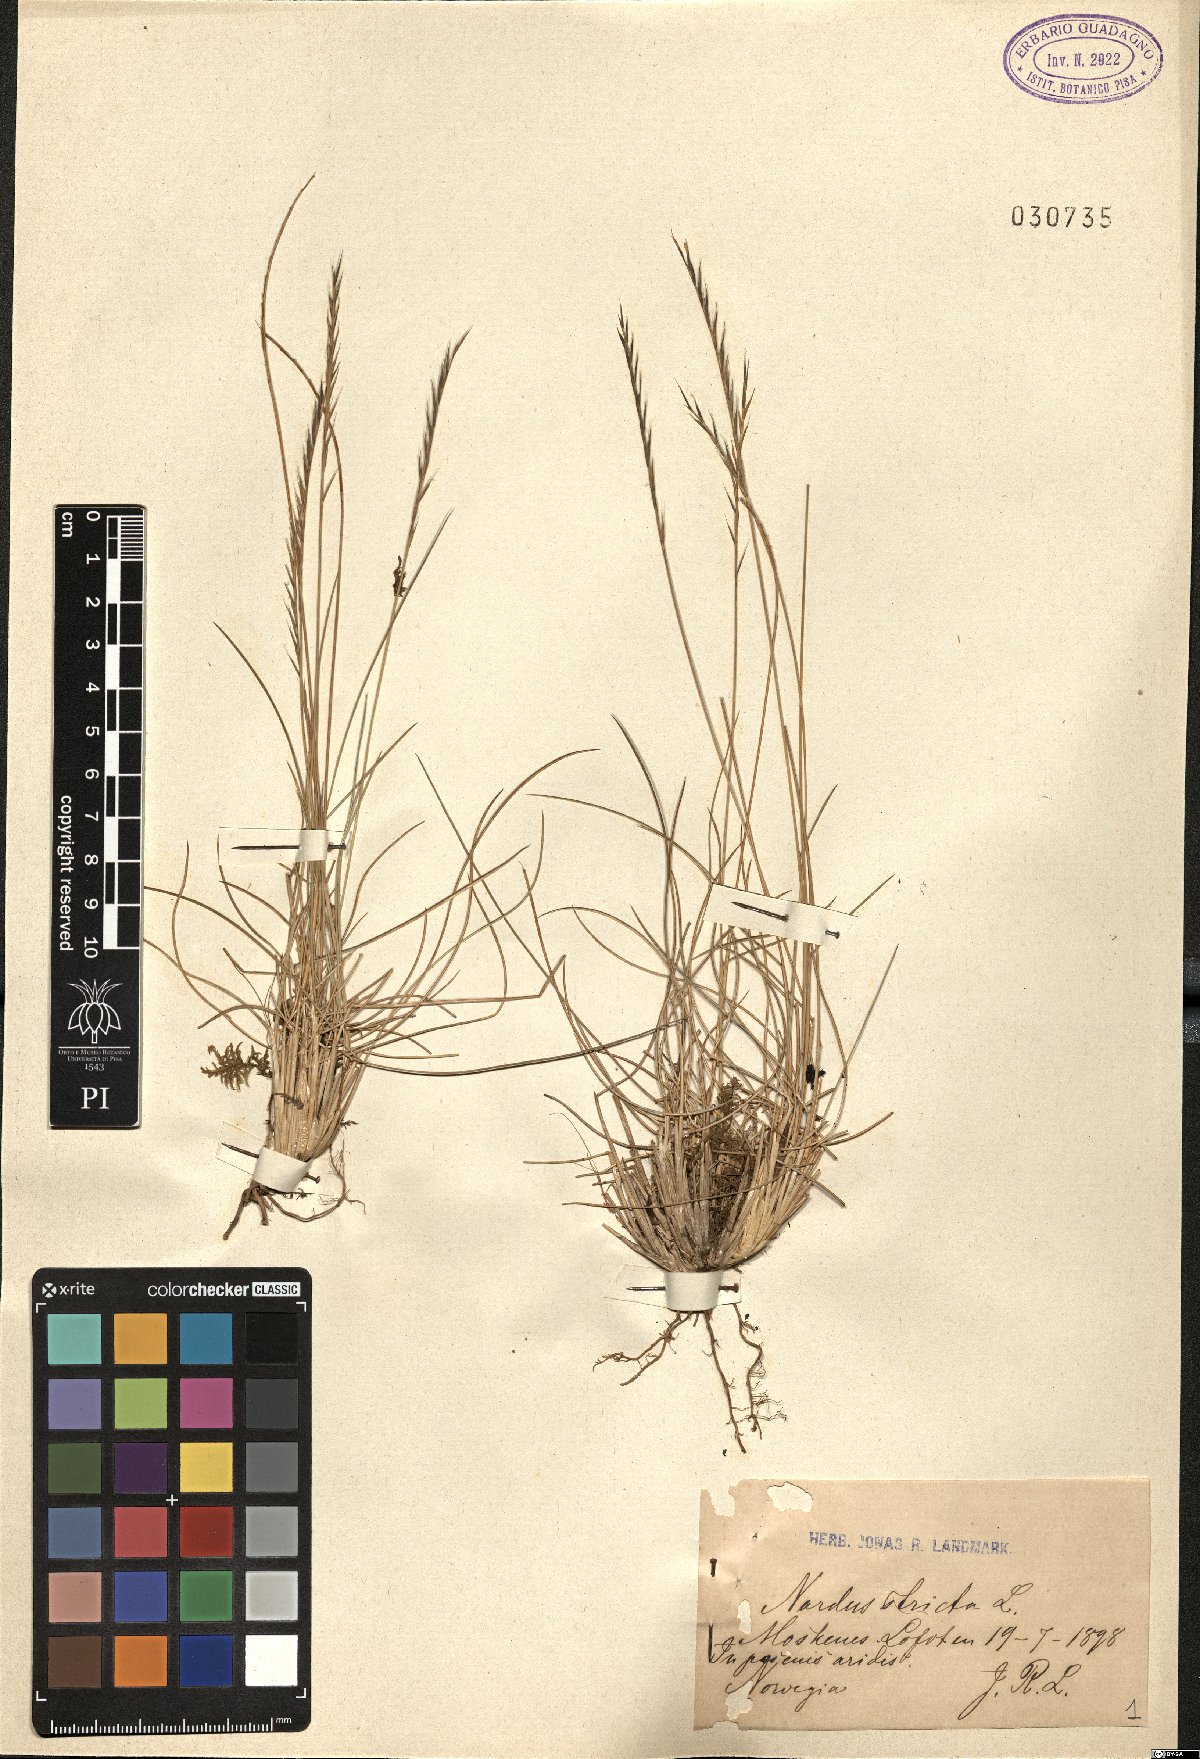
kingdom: Plantae
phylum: Tracheophyta
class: Liliopsida
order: Poales
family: Poaceae
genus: Nardus
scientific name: Nardus stricta
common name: Mat-grass
